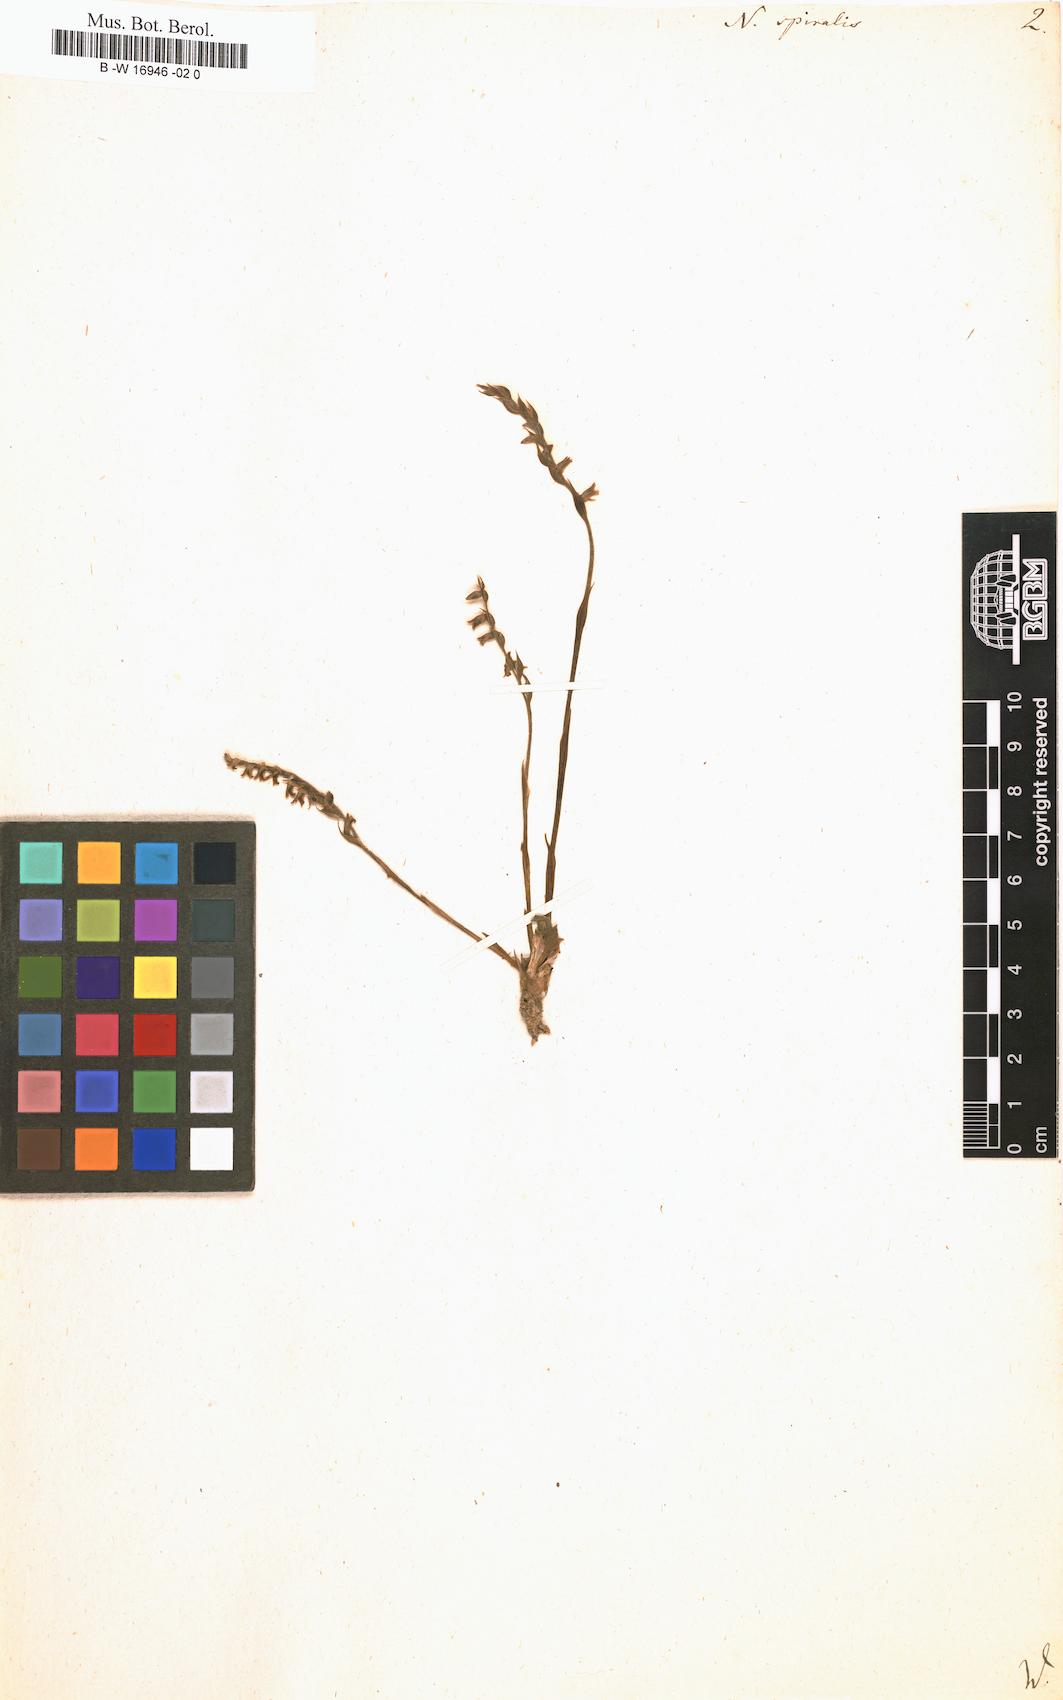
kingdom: Plantae
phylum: Tracheophyta
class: Liliopsida
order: Asparagales
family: Orchidaceae
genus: Spiranthes
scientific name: Spiranthes spiralis
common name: Autumn lady's-tresses
